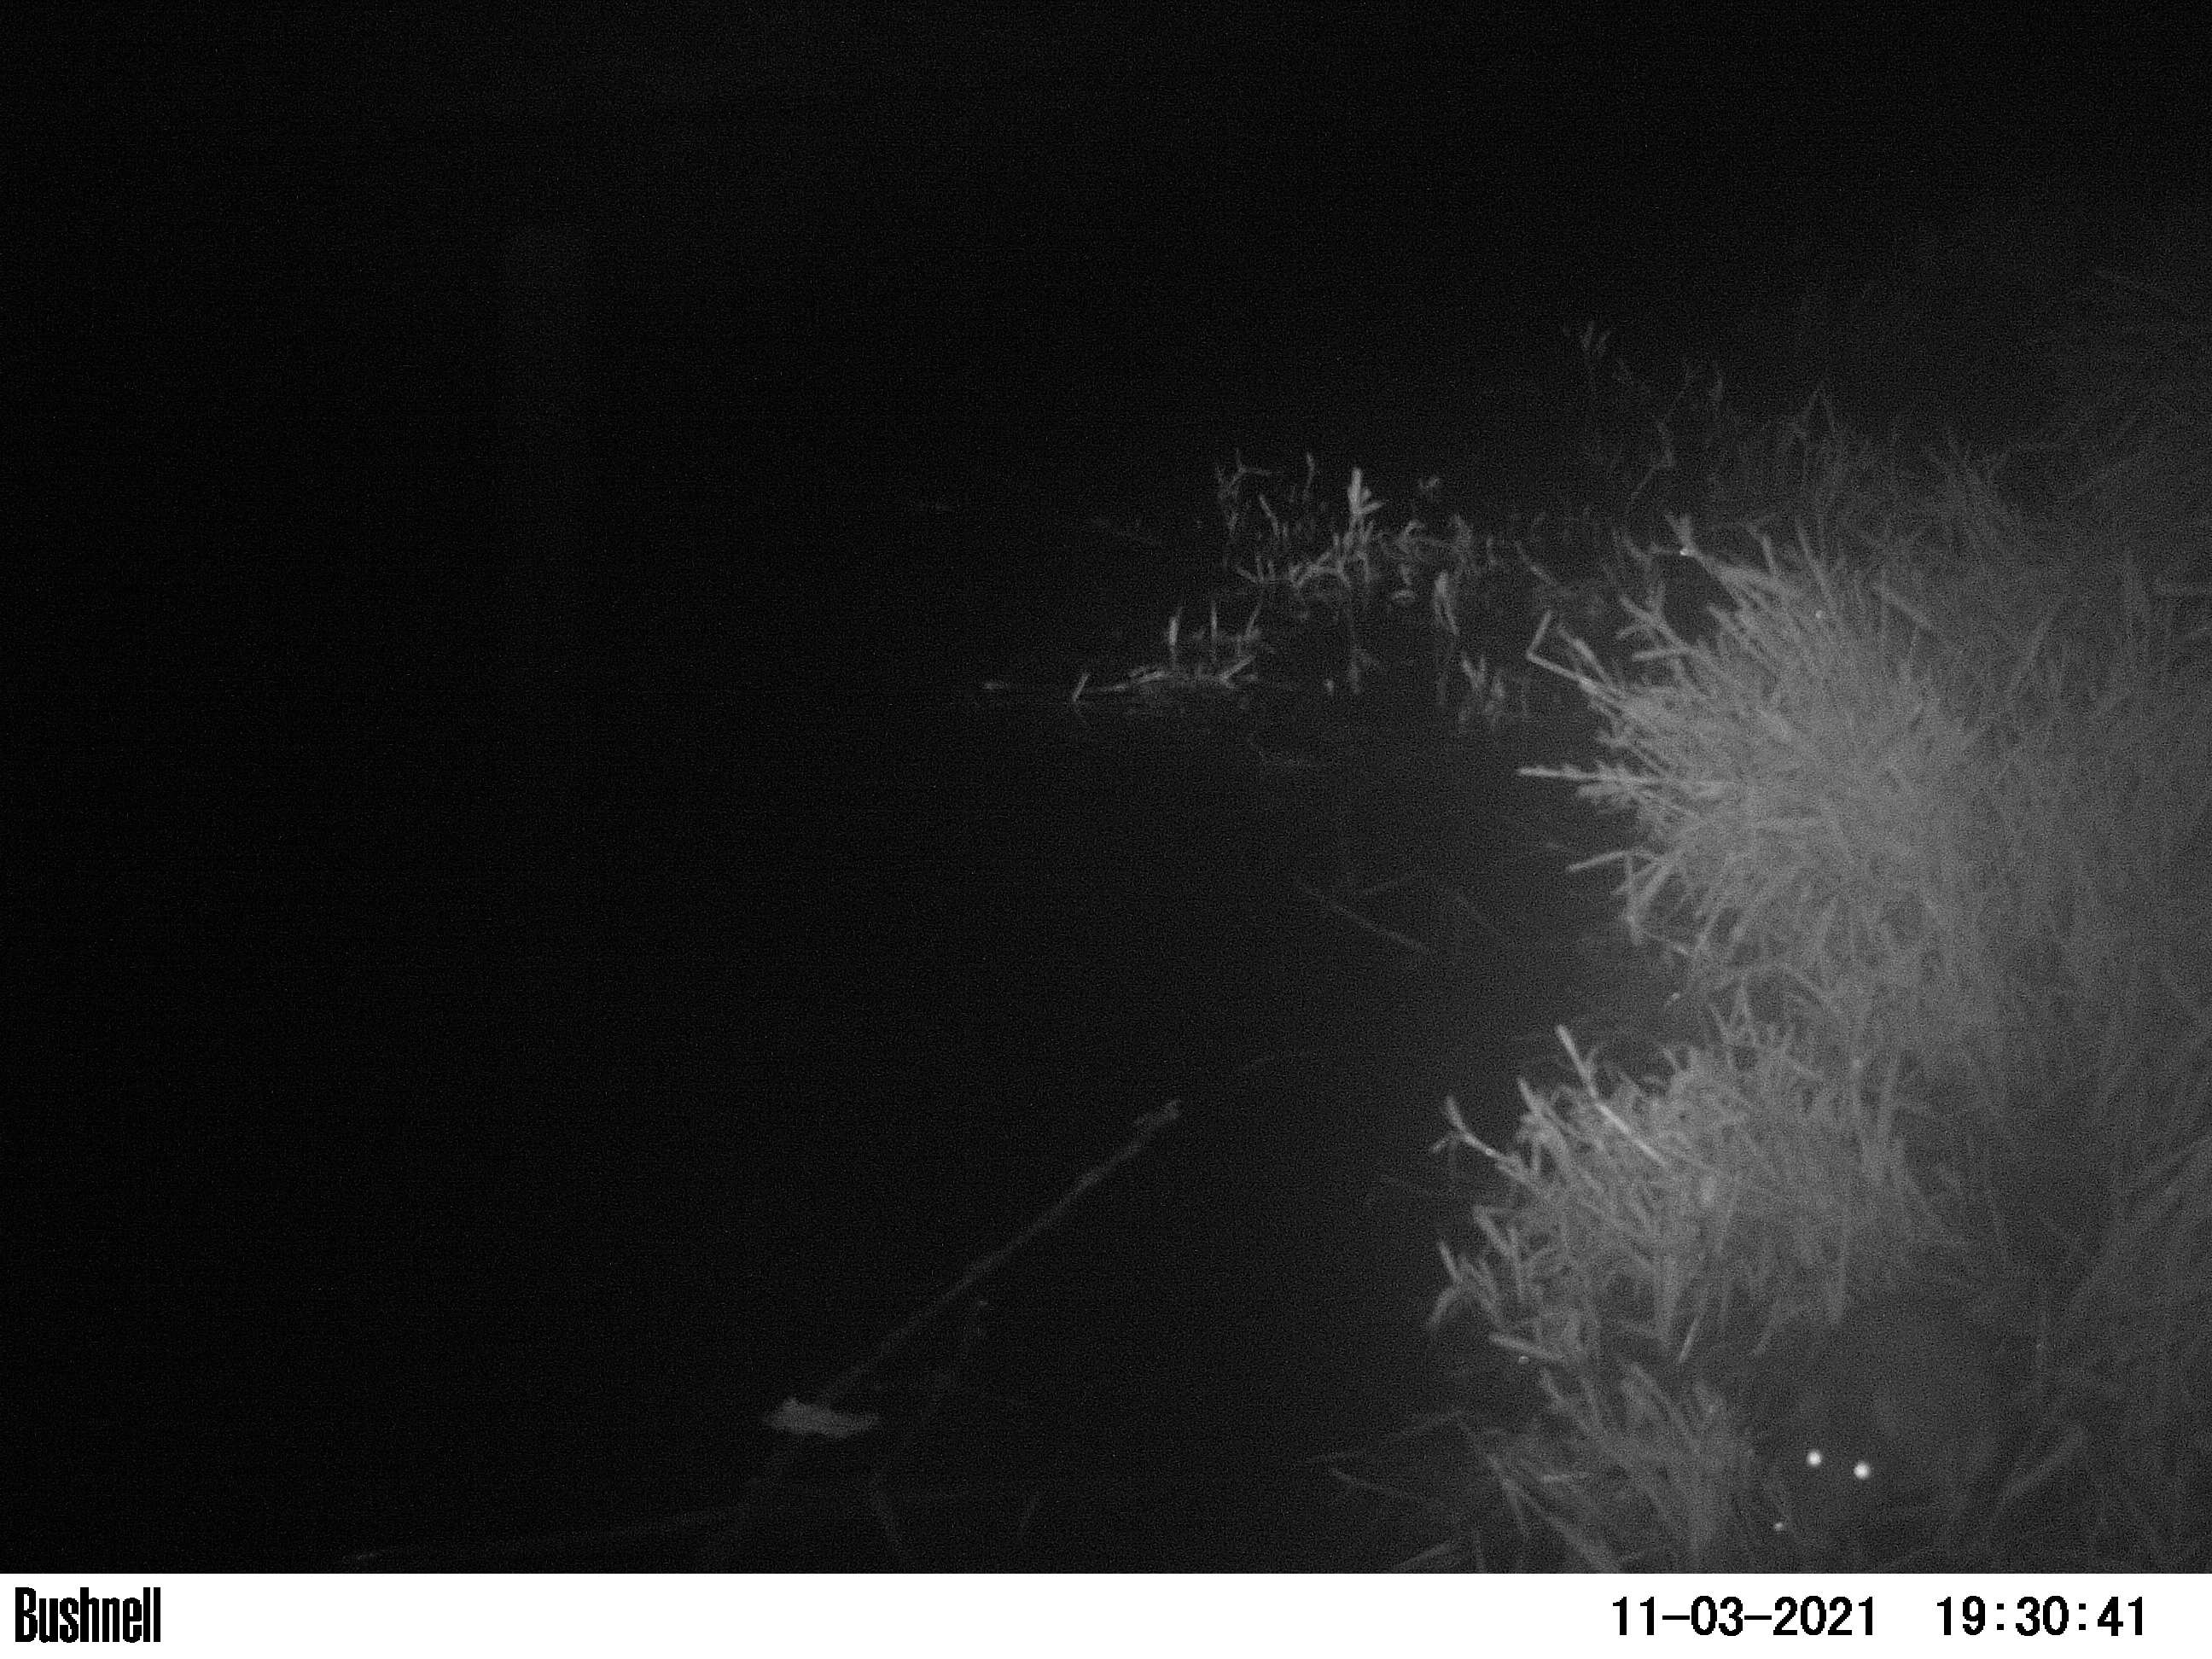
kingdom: Animalia
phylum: Chordata
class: Mammalia
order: Rodentia
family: Muridae
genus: Rattus
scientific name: Rattus norvegicus
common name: Brown rat
